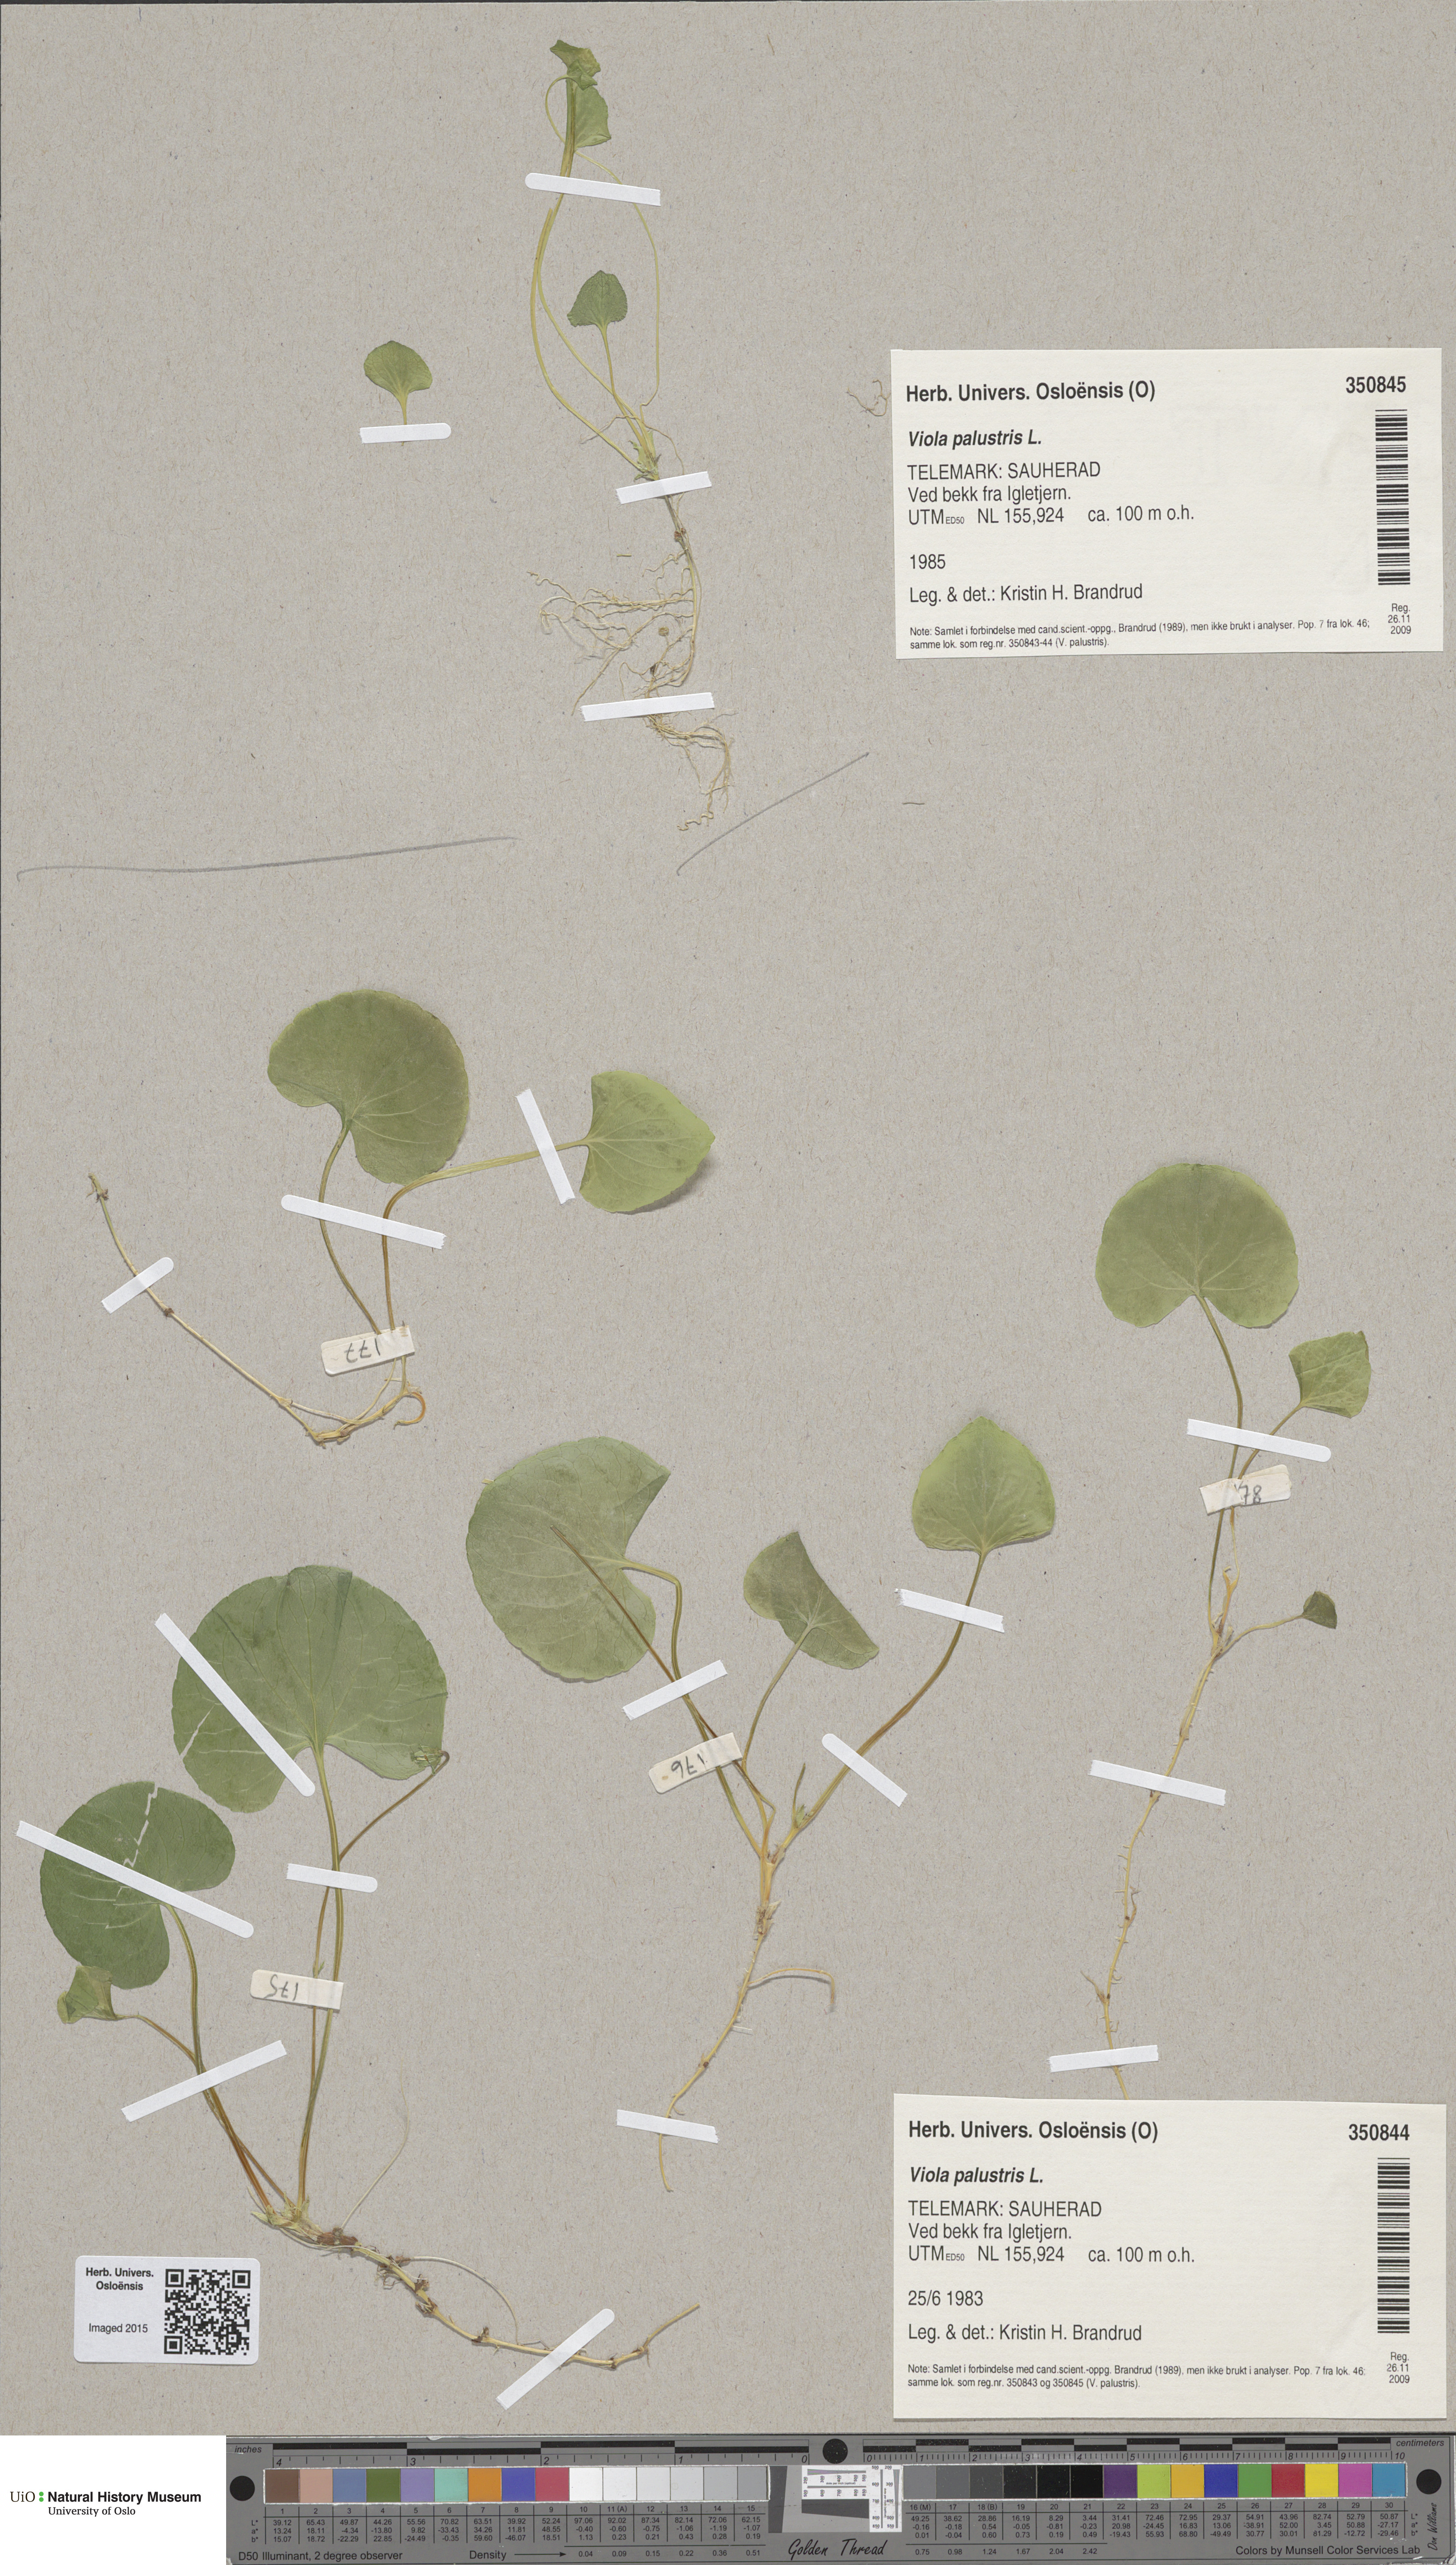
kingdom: Plantae
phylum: Tracheophyta
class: Magnoliopsida
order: Malpighiales
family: Violaceae
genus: Viola
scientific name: Viola palustris
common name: Marsh violet
